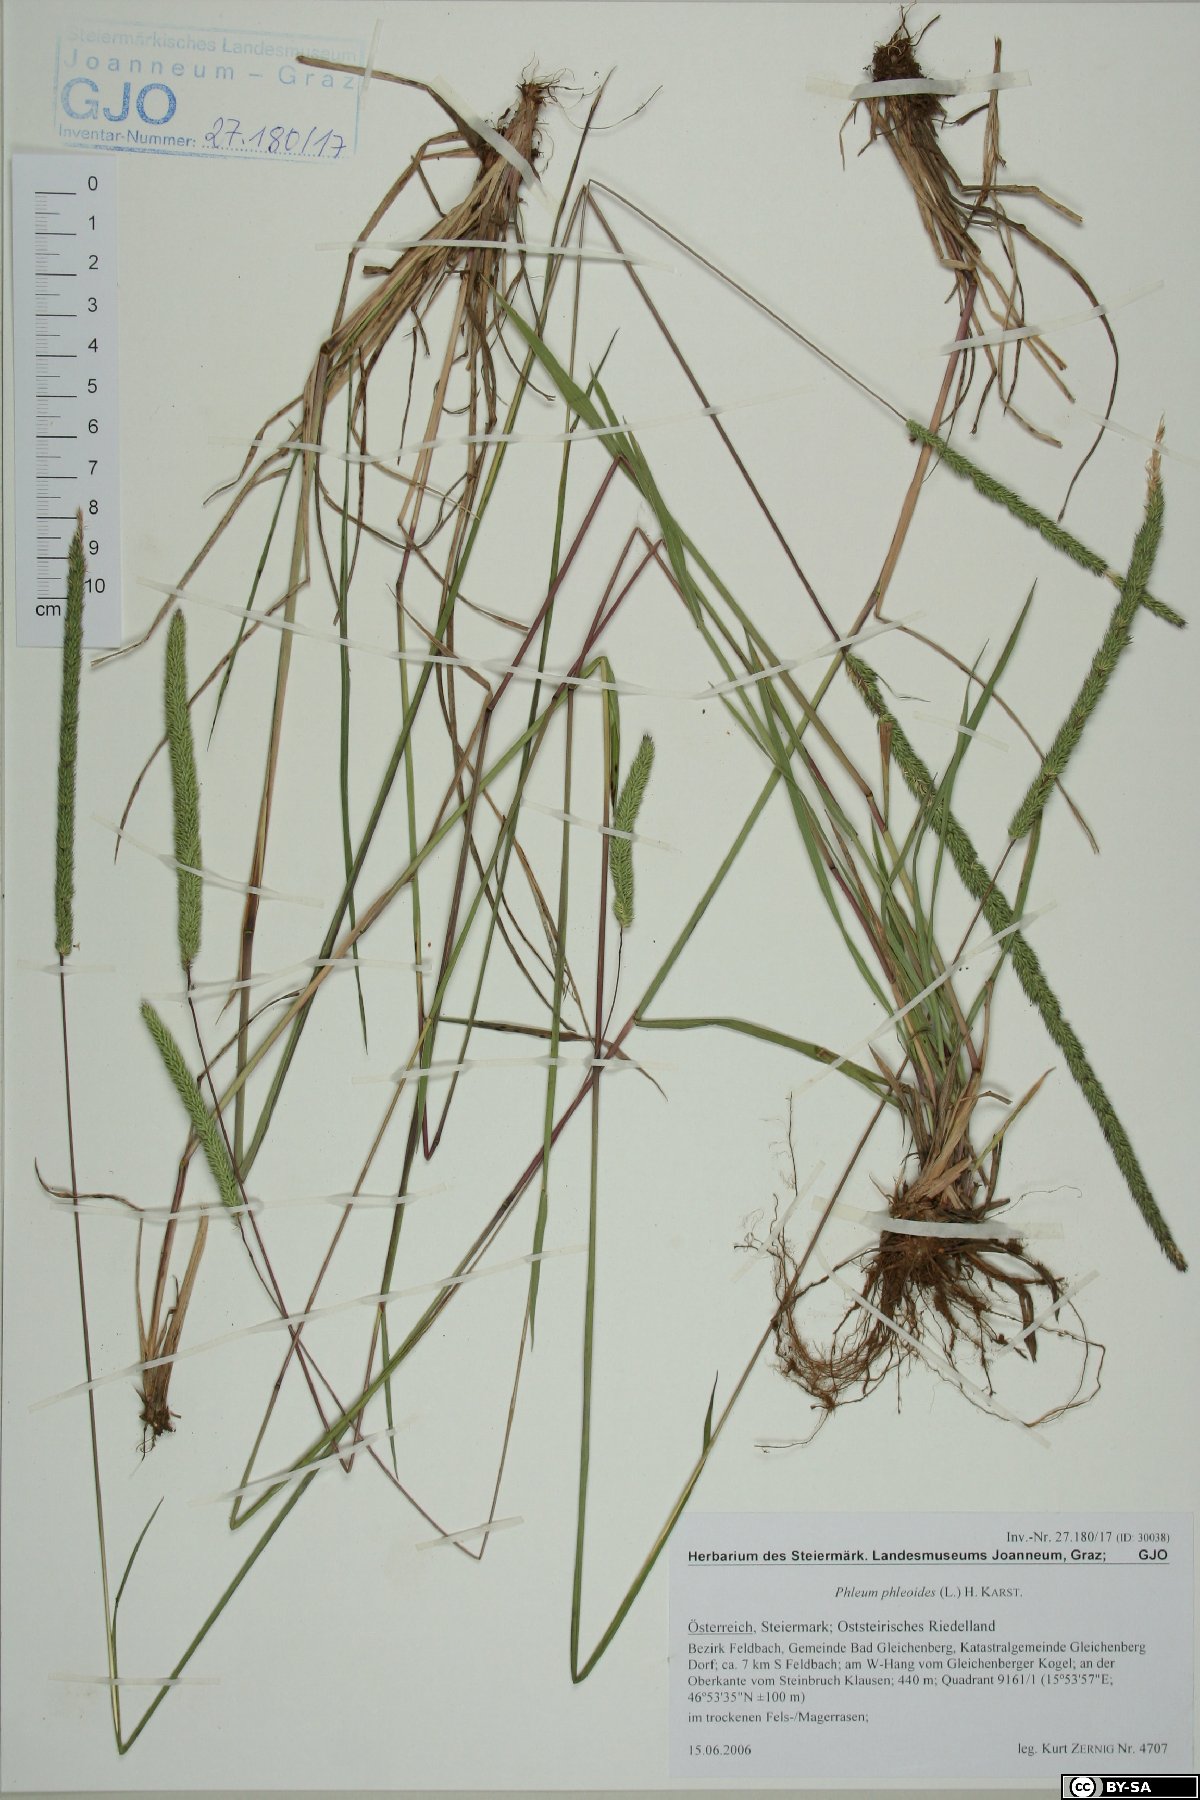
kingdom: Plantae
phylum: Tracheophyta
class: Liliopsida
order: Poales
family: Poaceae
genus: Phleum
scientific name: Phleum phleoides
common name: Purple-stem cat's-tail
